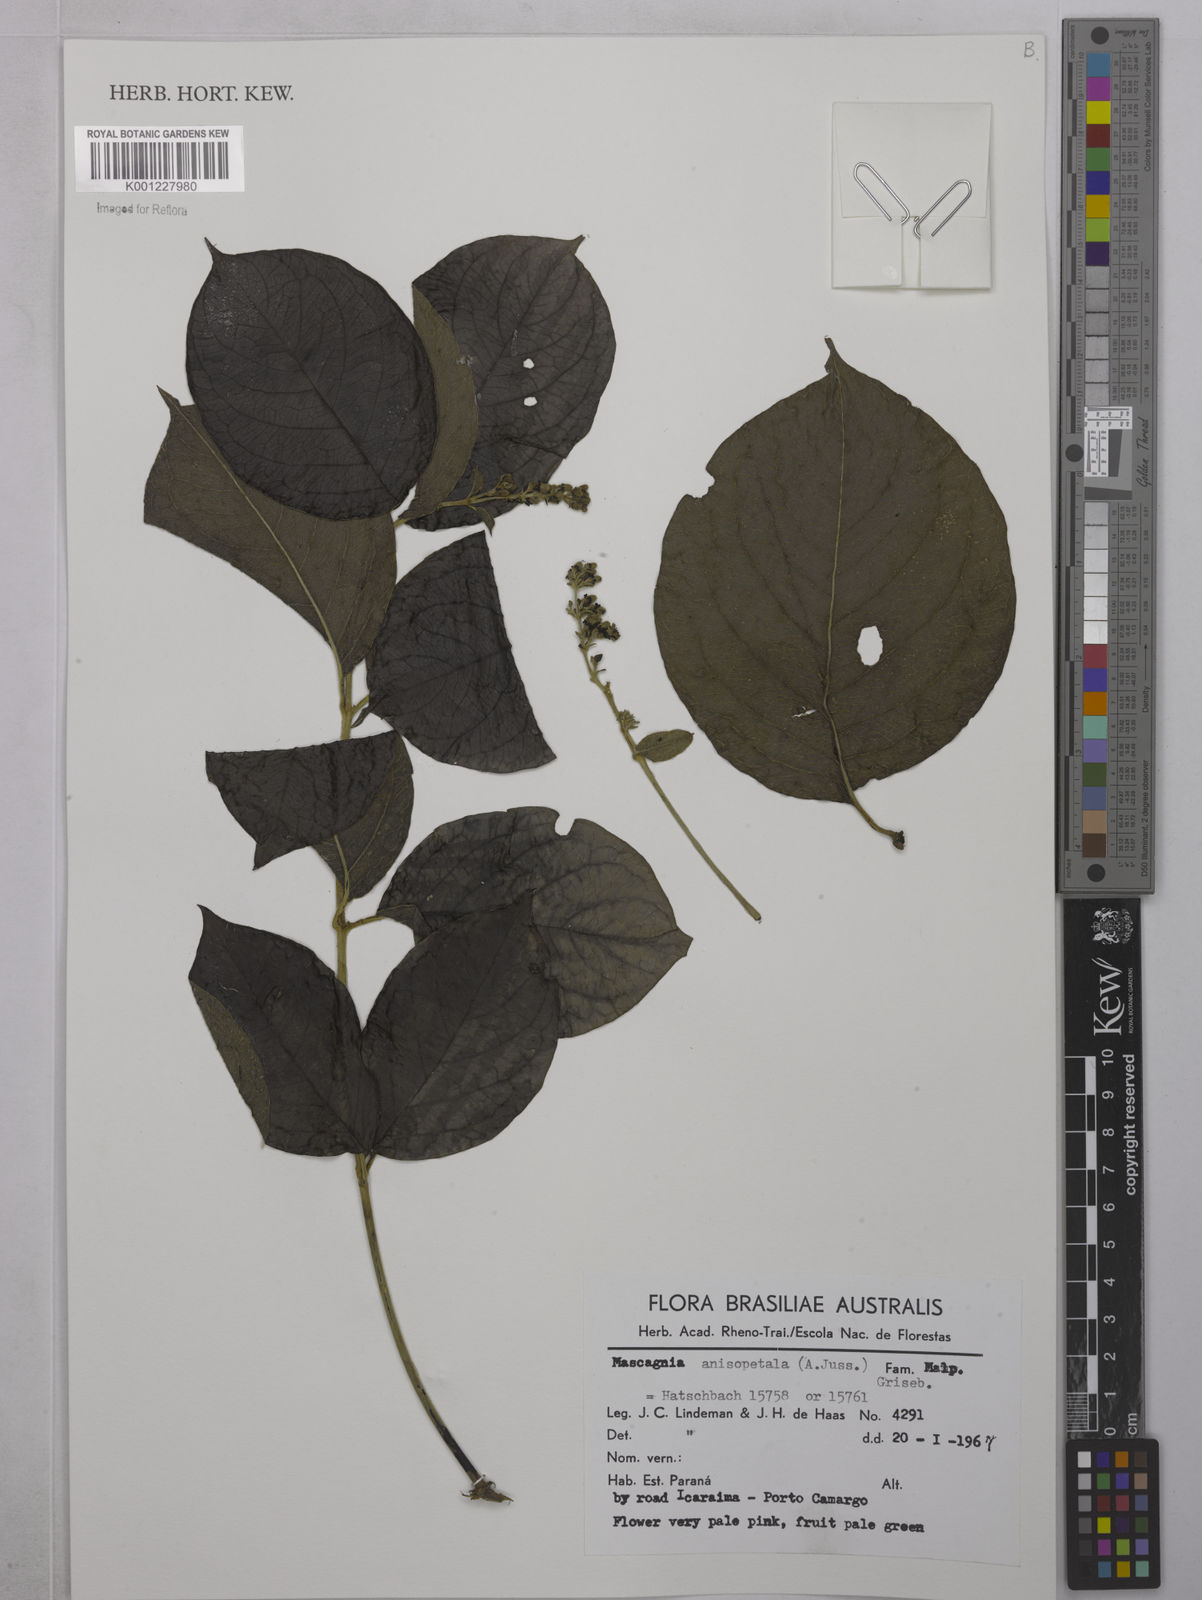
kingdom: Plantae
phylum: Tracheophyta
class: Magnoliopsida
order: Malpighiales
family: Malpighiaceae
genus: Alicia
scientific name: Alicia anisopetala
